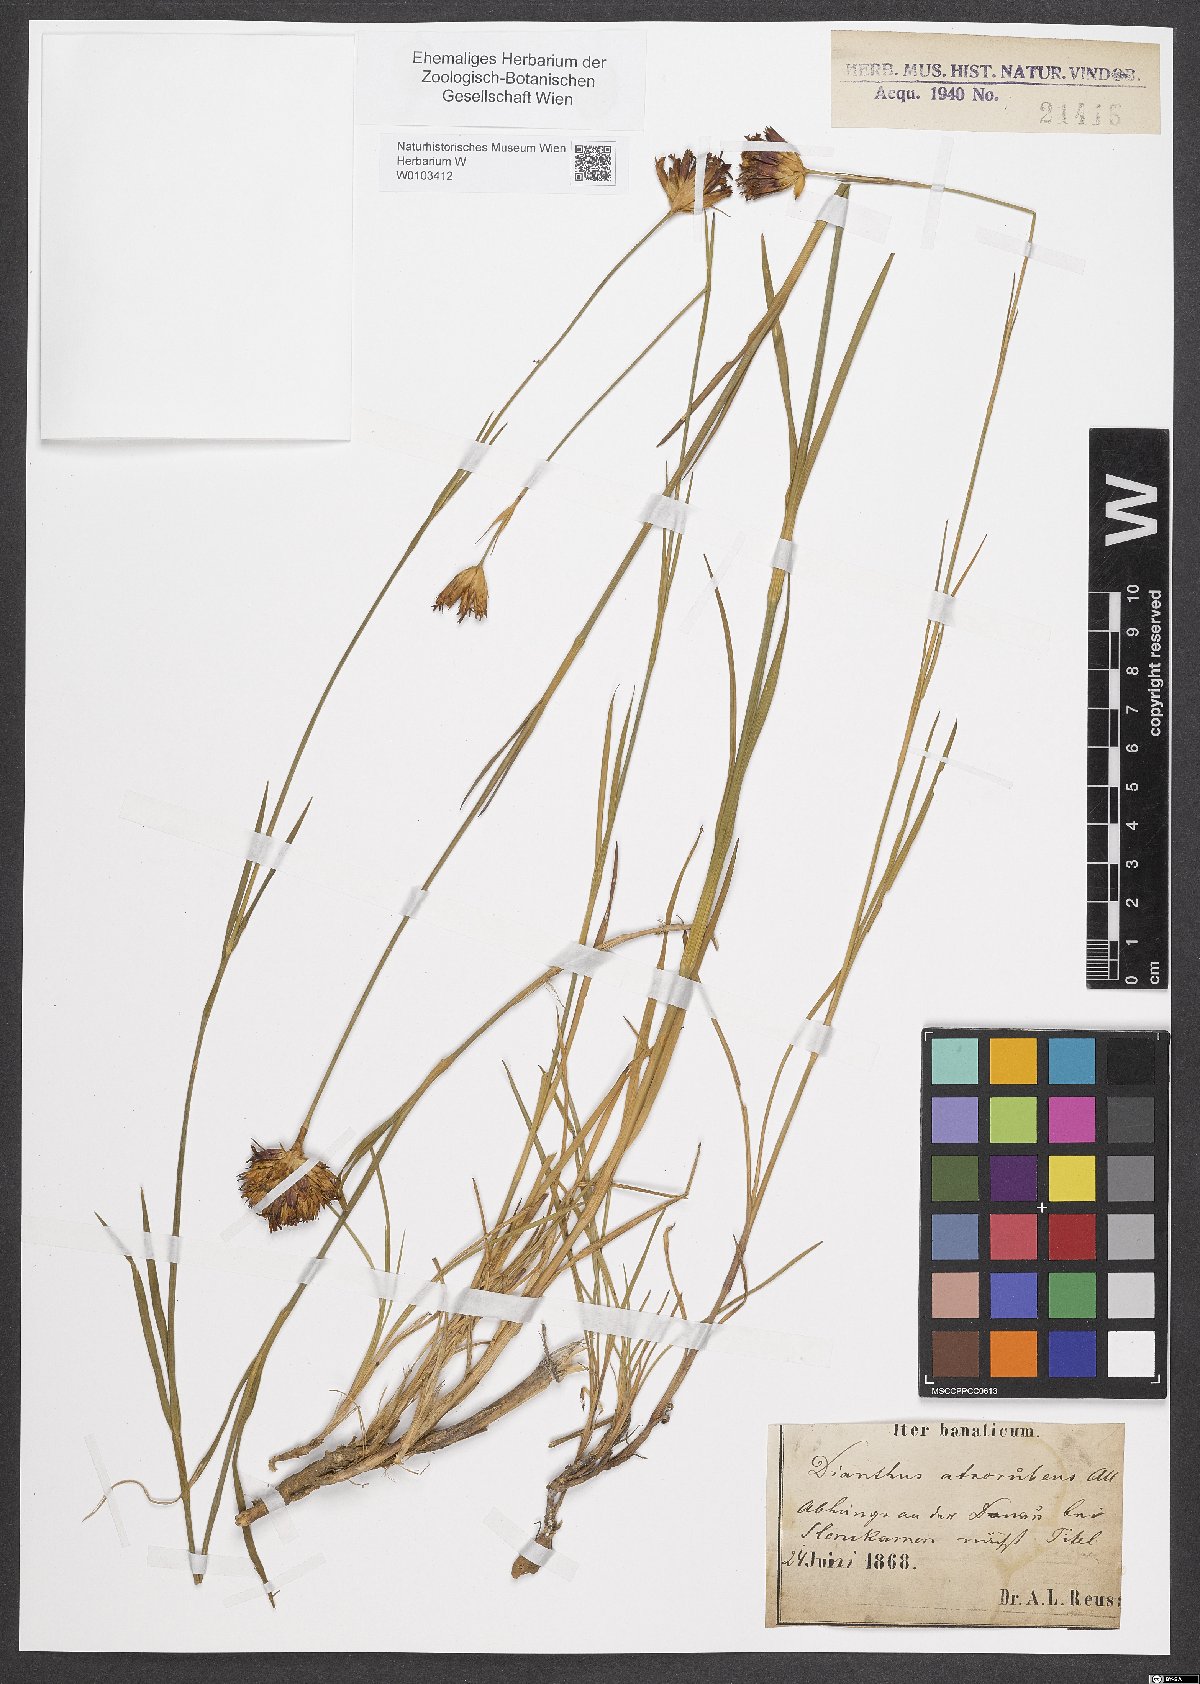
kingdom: Plantae
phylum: Tracheophyta
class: Magnoliopsida
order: Caryophyllales
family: Caryophyllaceae
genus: Dianthus
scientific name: Dianthus carthusianorum
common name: Carthusian pink
